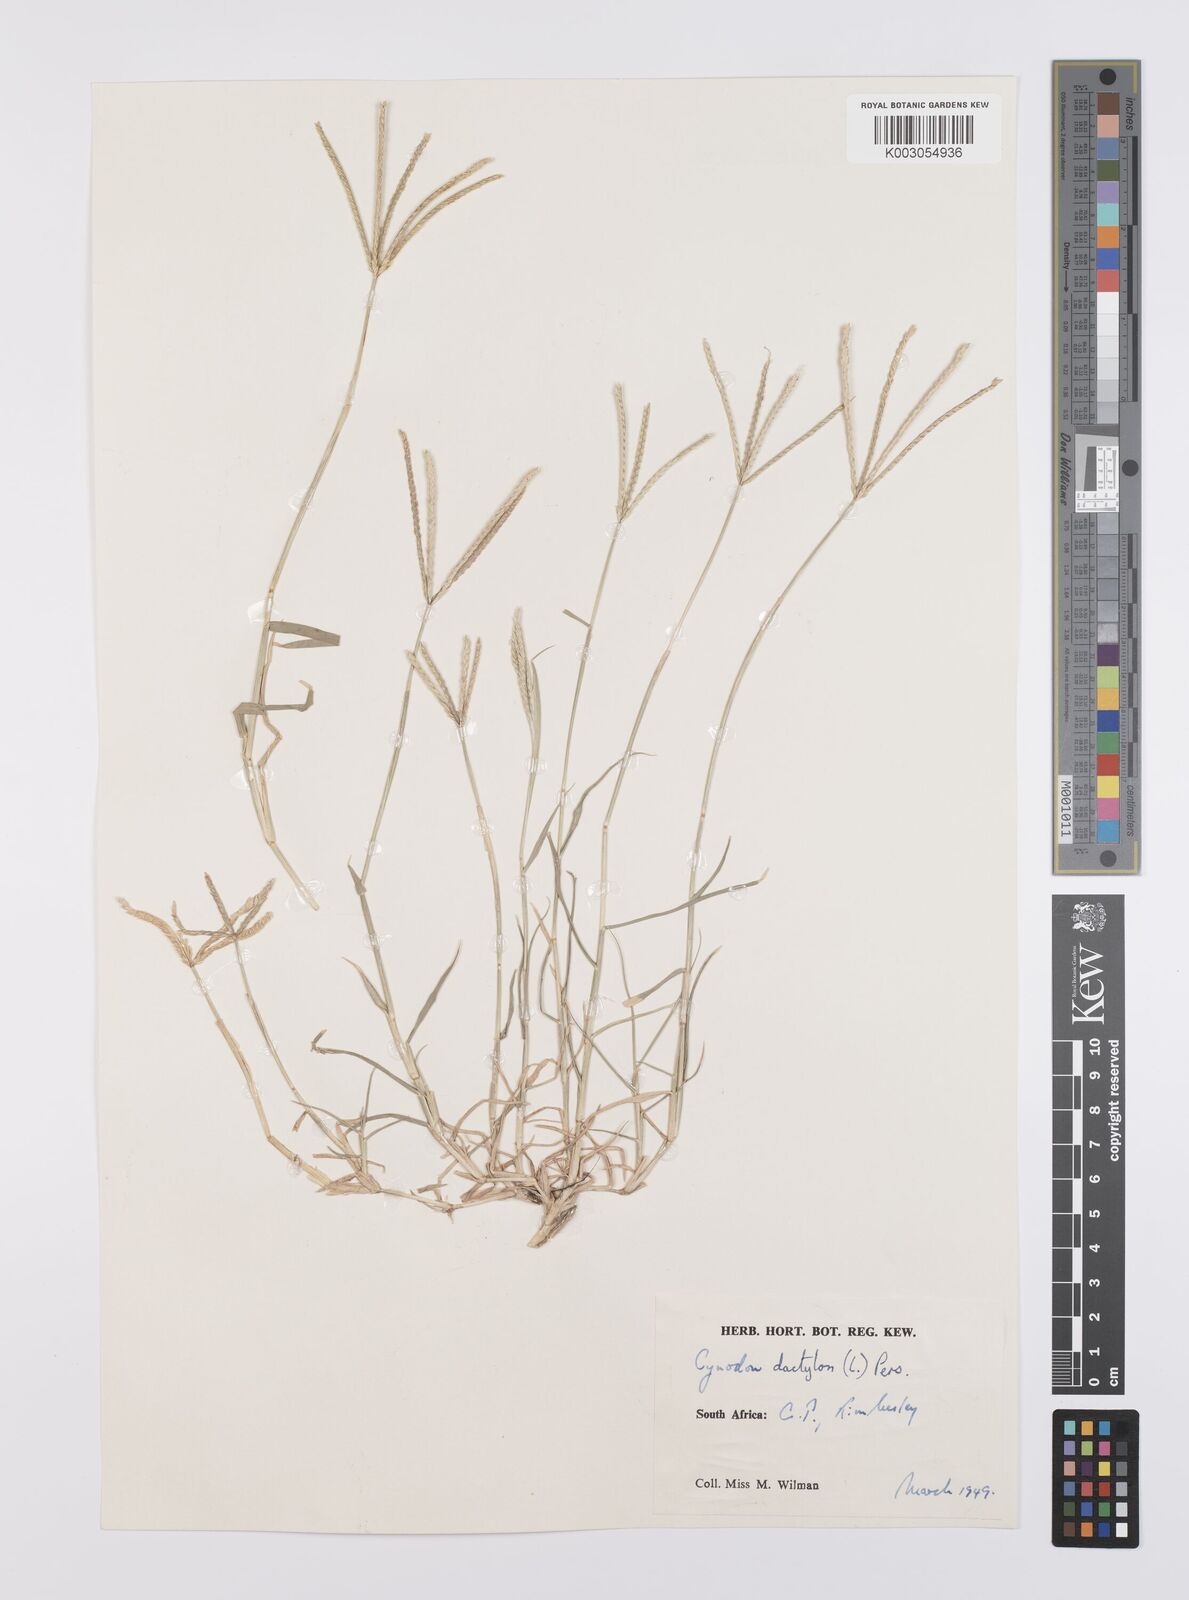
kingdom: Plantae
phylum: Tracheophyta
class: Liliopsida
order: Poales
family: Poaceae
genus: Cynodon
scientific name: Cynodon dactylon
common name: Bermuda grass
